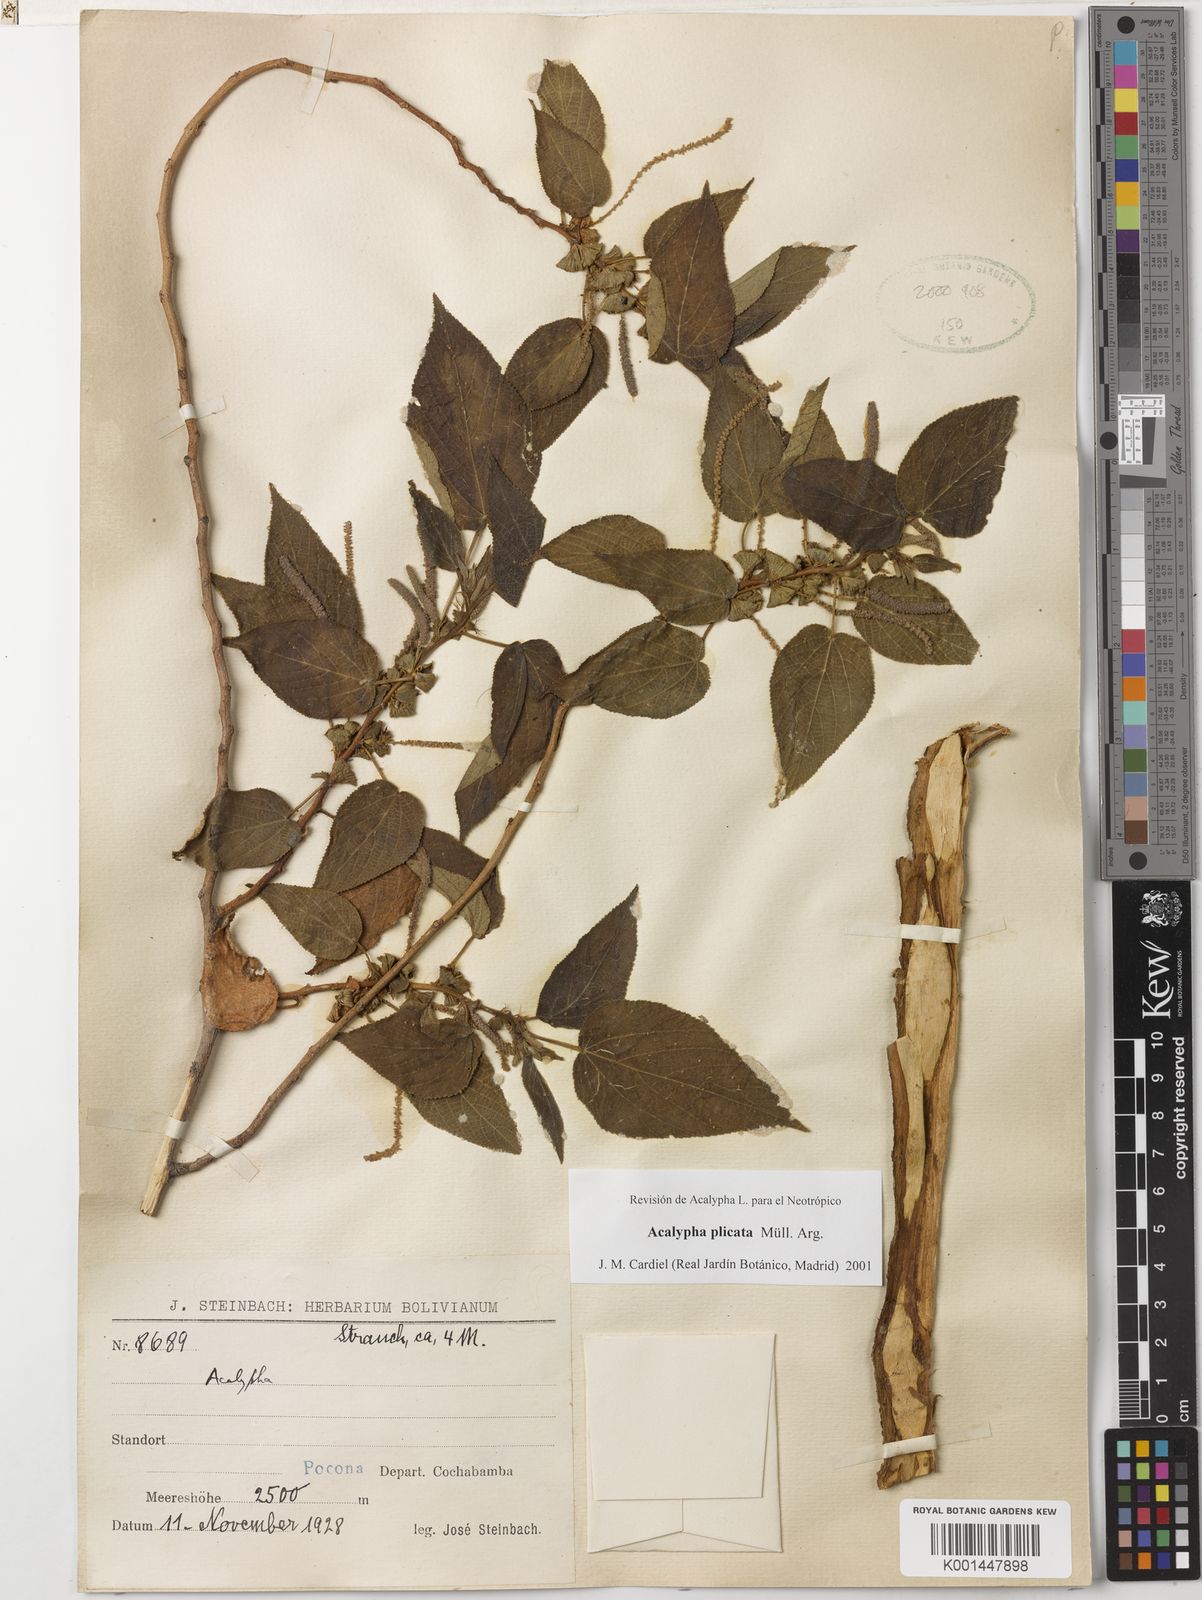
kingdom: Plantae
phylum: Tracheophyta
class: Magnoliopsida
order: Malpighiales
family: Euphorbiaceae
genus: Acalypha
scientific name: Acalypha plicata
